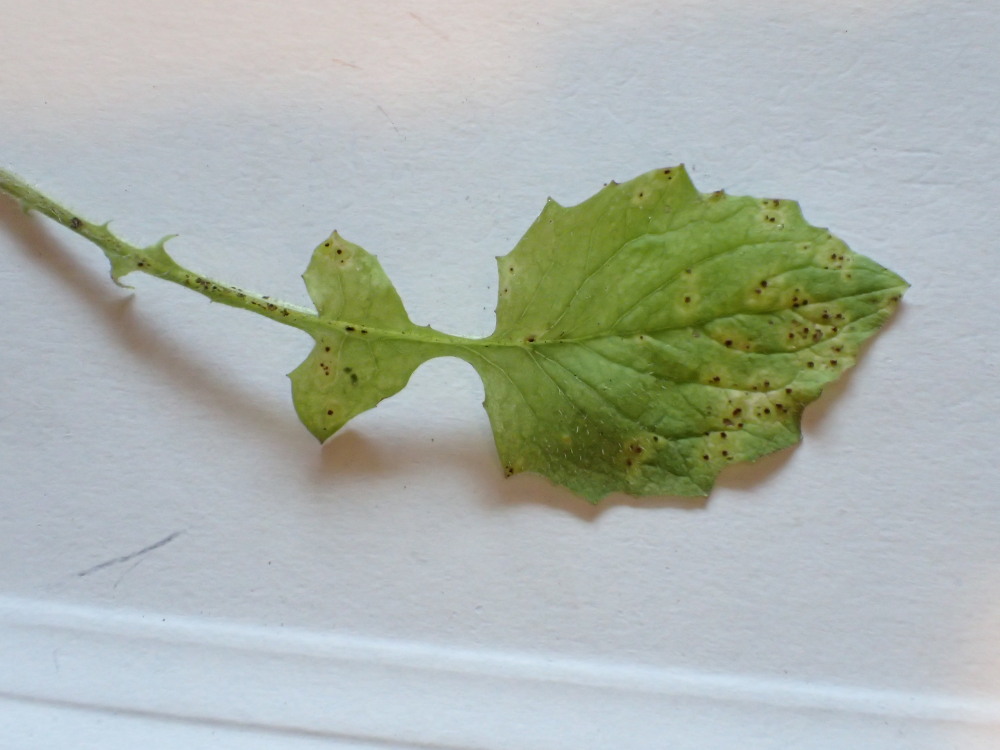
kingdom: Fungi
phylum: Basidiomycota
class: Pucciniomycetes
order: Pucciniales
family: Pucciniaceae
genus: Puccinia
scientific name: Puccinia lapsanae
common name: Nipplewort rust
